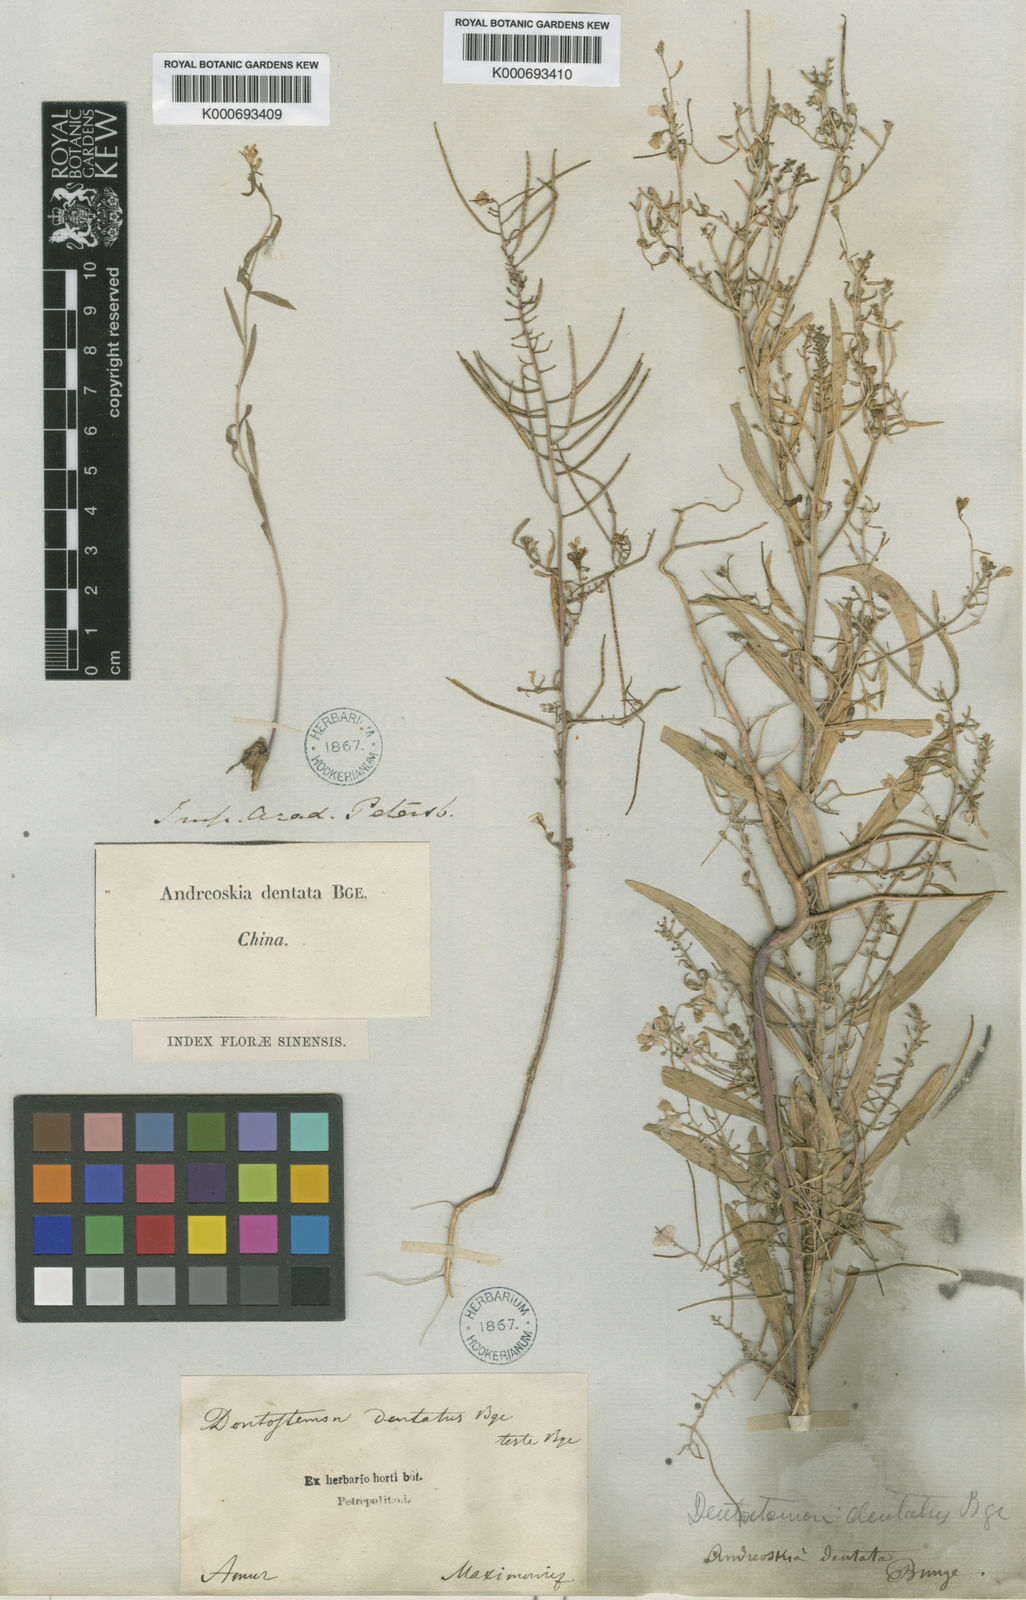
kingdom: Plantae
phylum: Tracheophyta
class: Magnoliopsida
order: Brassicales
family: Brassicaceae
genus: Dontostemon
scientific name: Dontostemon dentatus
